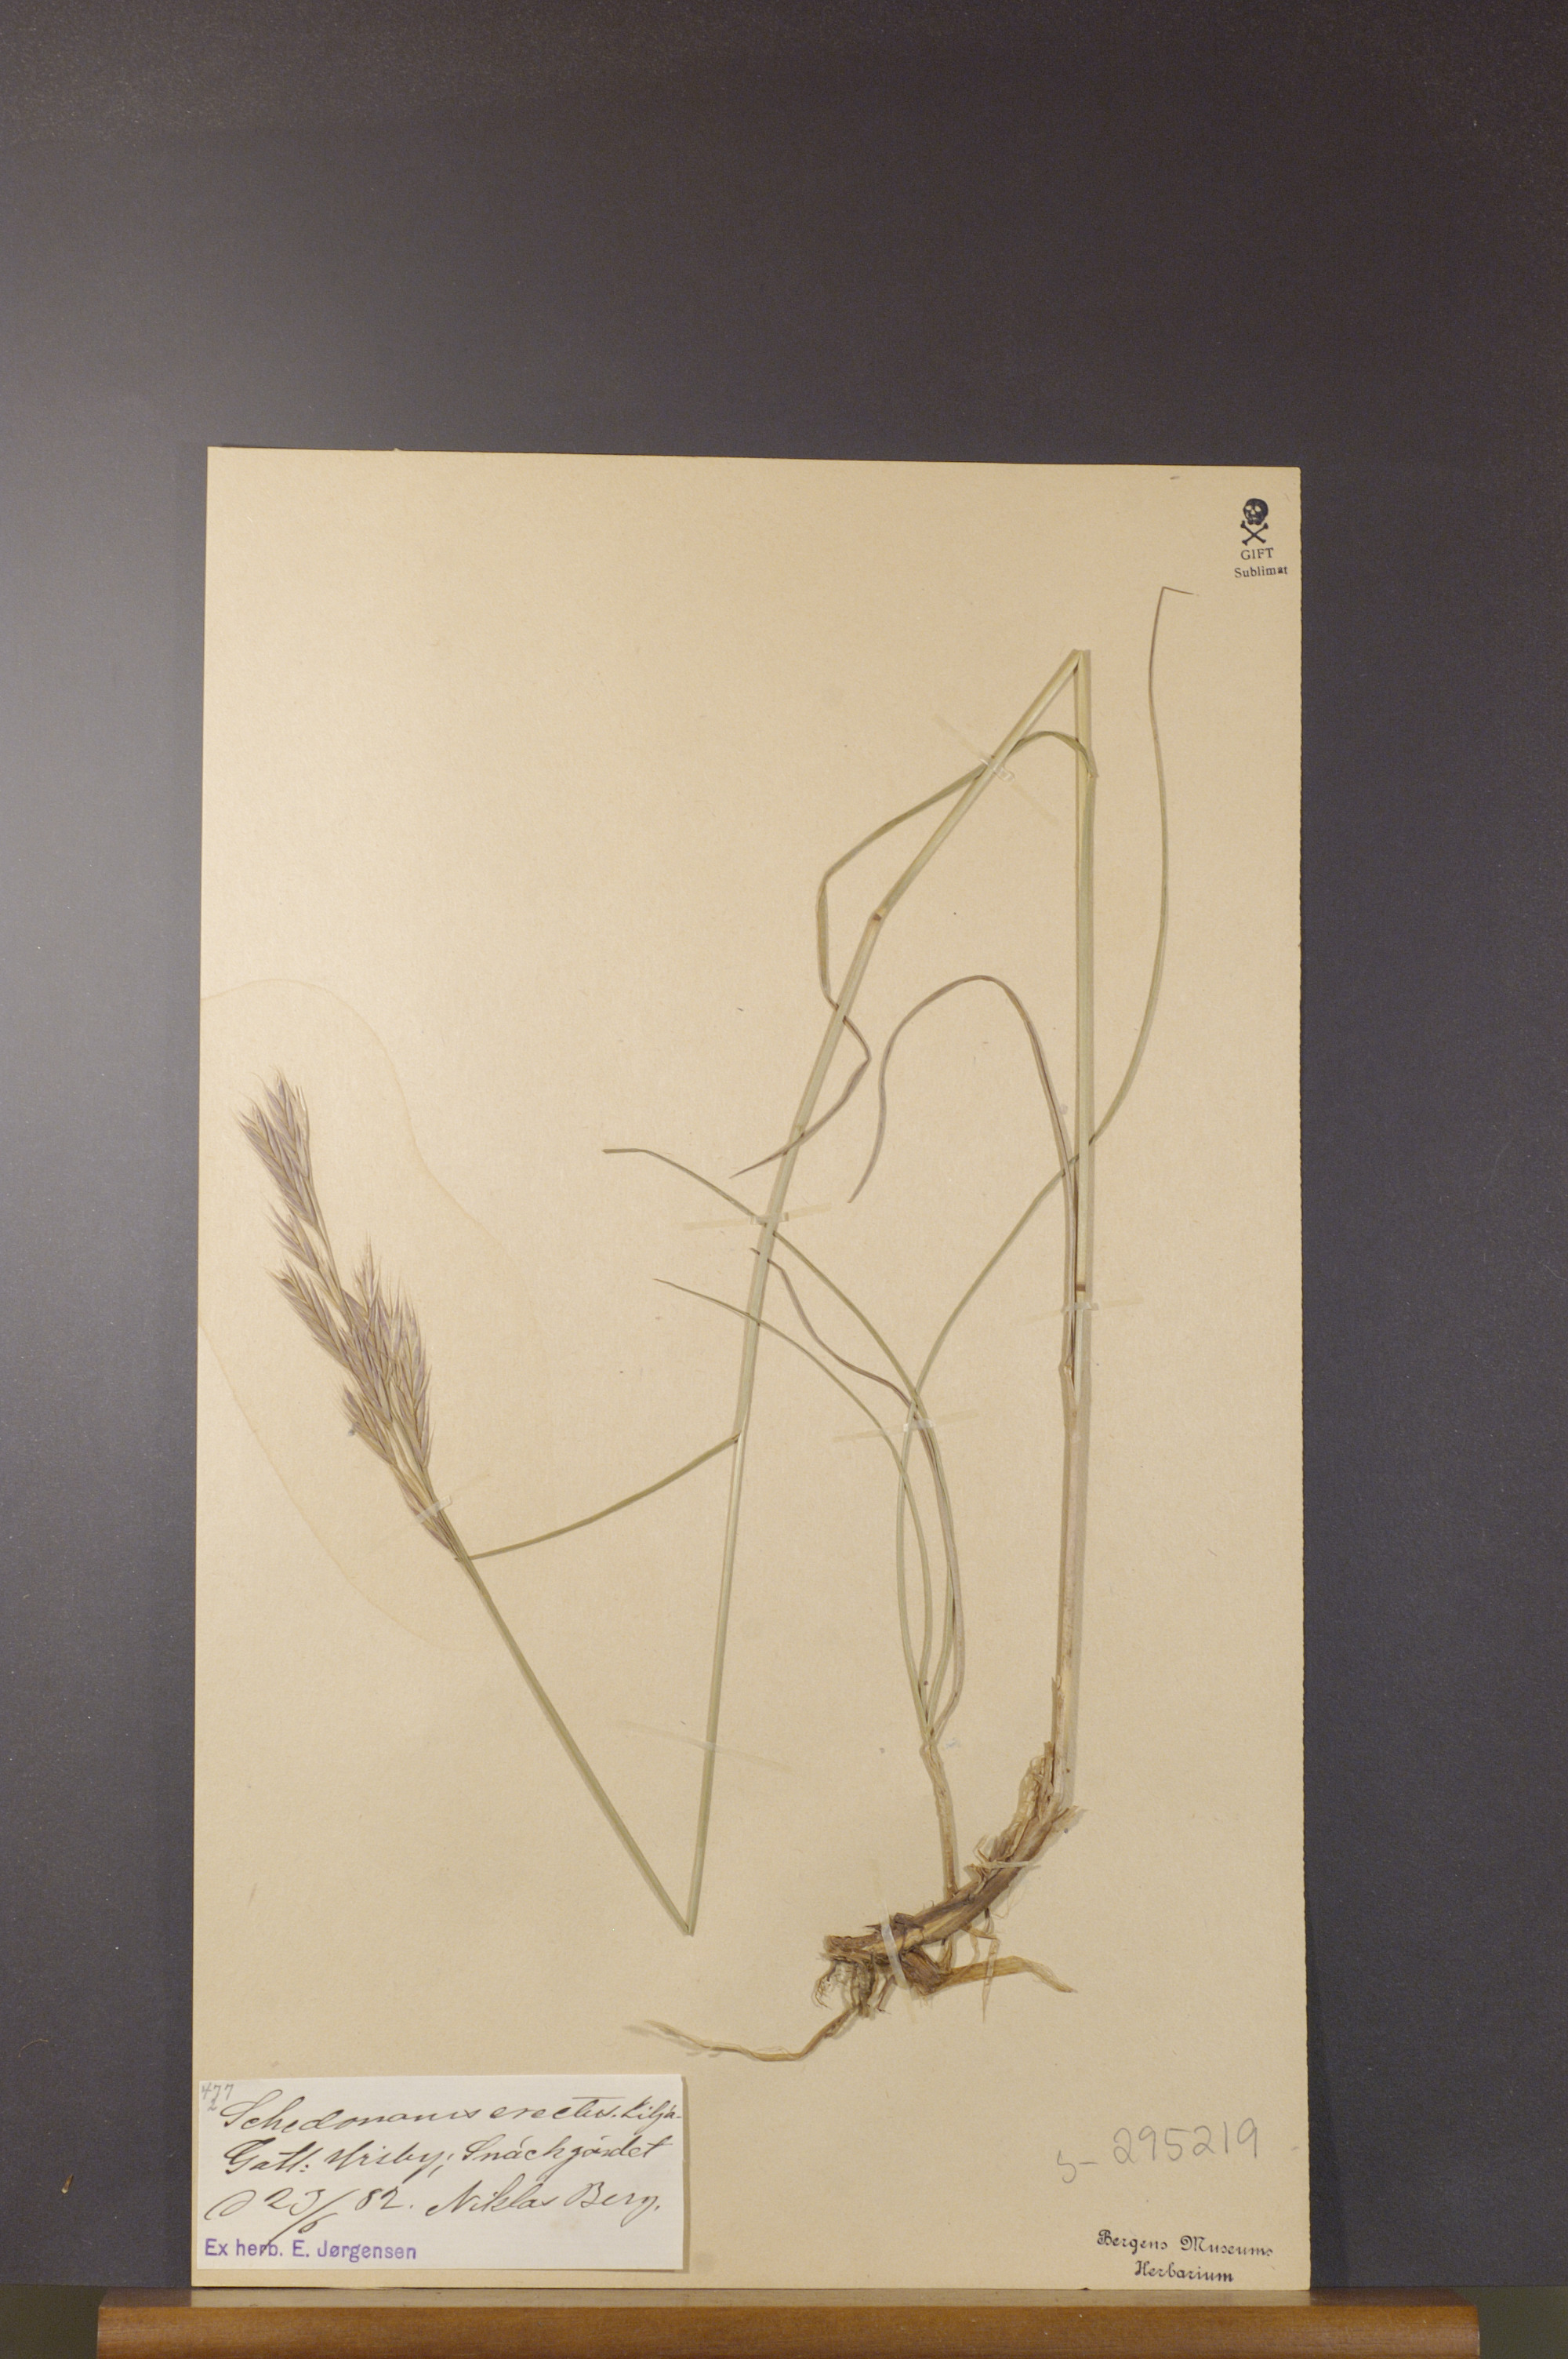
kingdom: Plantae
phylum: Tracheophyta
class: Liliopsida
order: Poales
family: Poaceae
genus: Bromus
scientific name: Bromus erectus
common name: Erect brome
